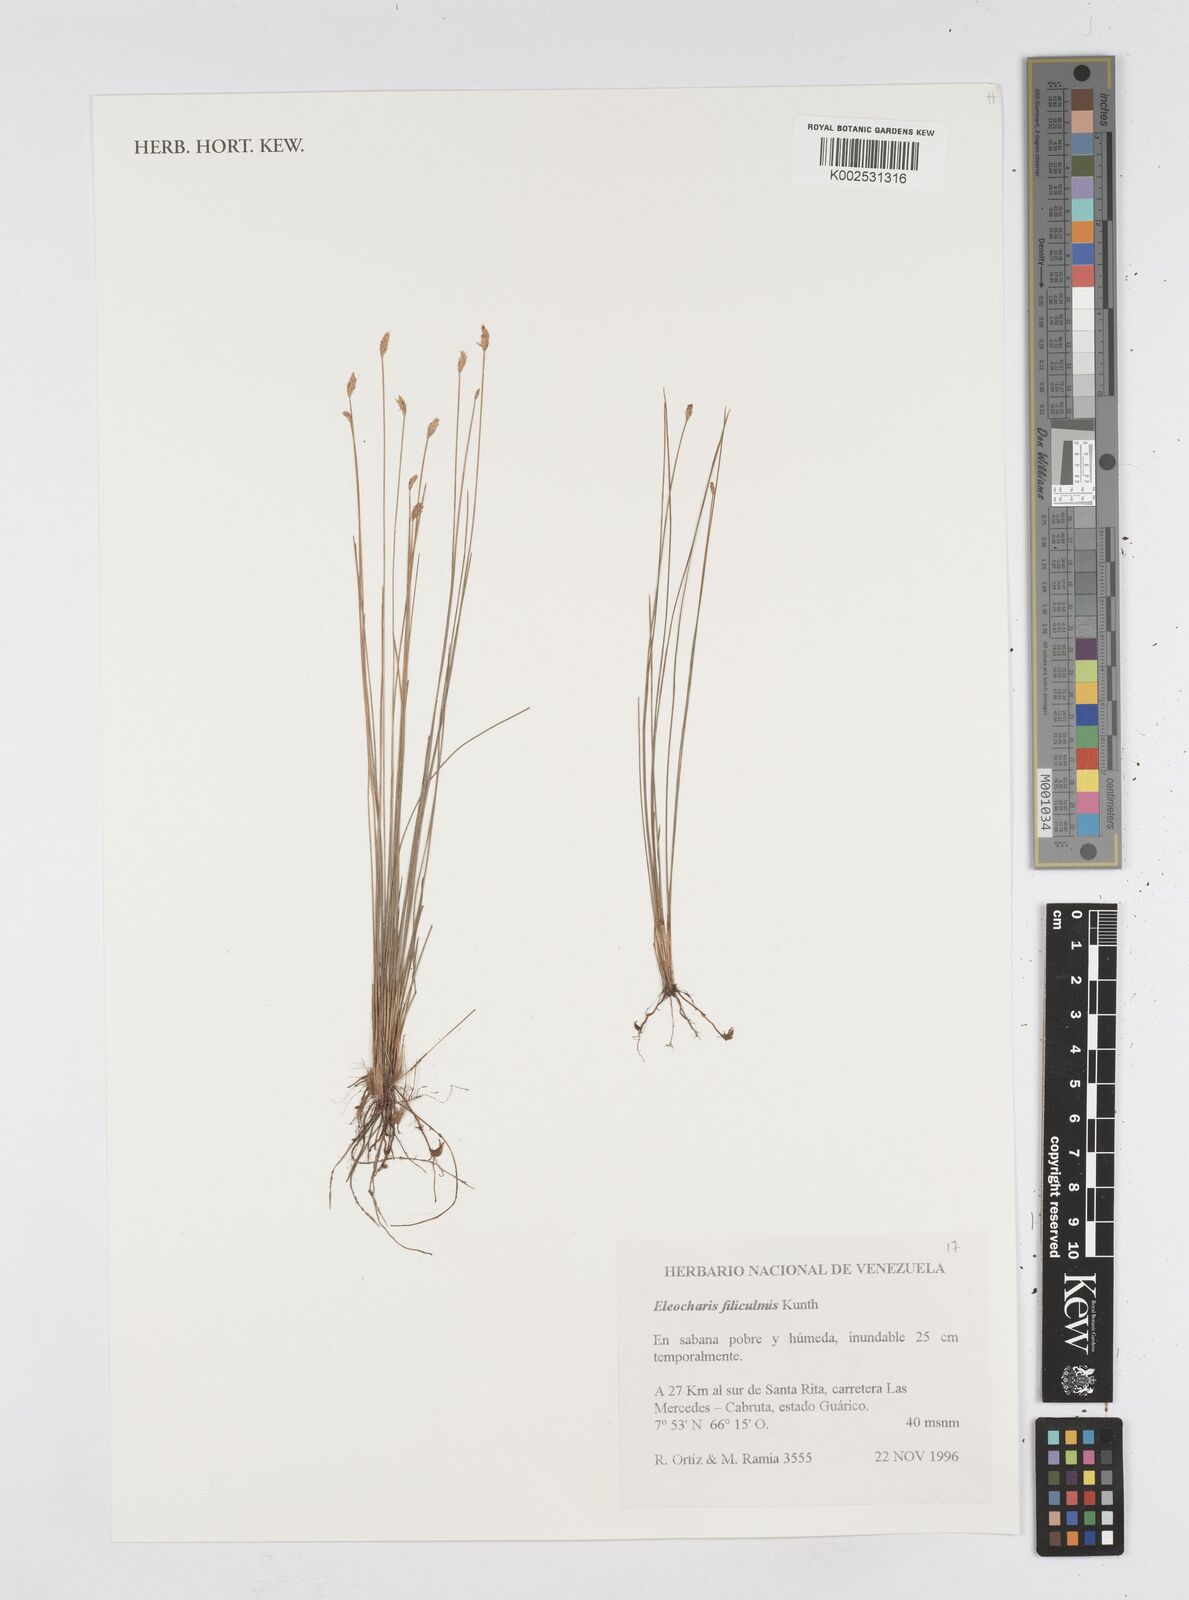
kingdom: Plantae
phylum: Tracheophyta
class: Liliopsida
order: Poales
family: Cyperaceae
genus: Eleocharis
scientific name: Eleocharis filiculmis
